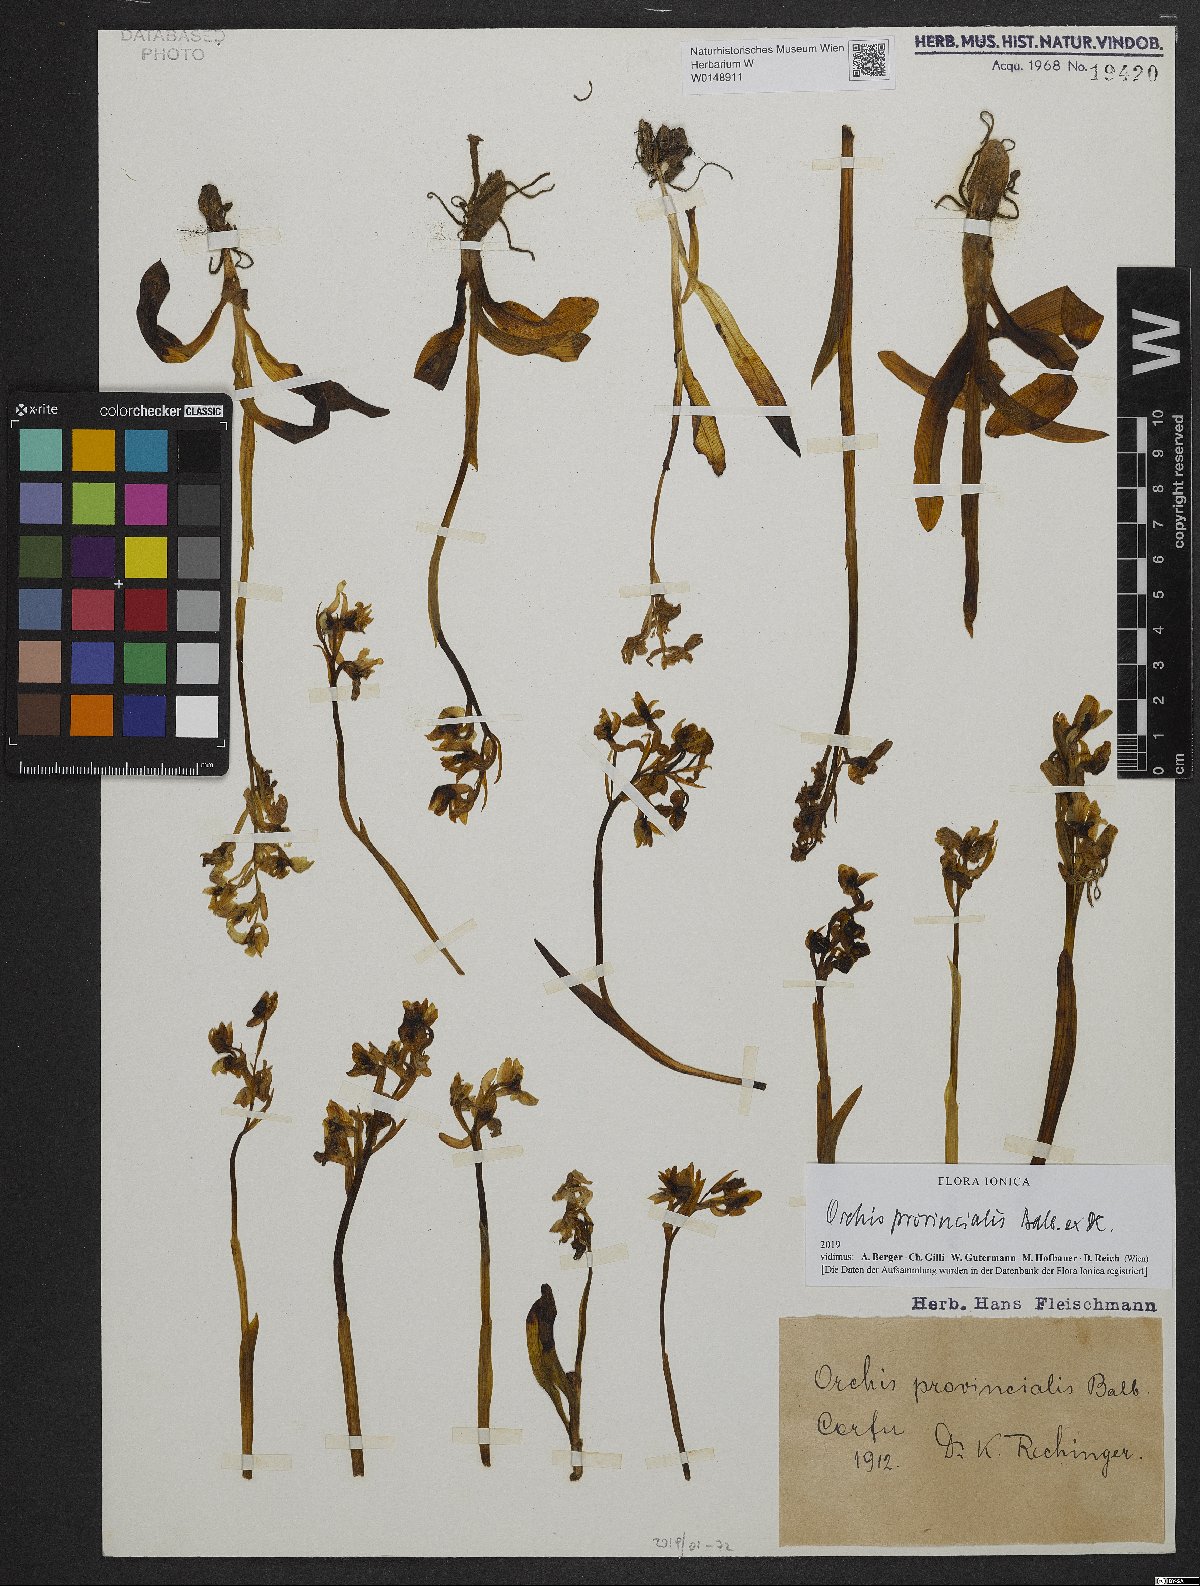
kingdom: Plantae
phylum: Tracheophyta
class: Liliopsida
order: Asparagales
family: Orchidaceae
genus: Orchis
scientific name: Orchis provincialis
